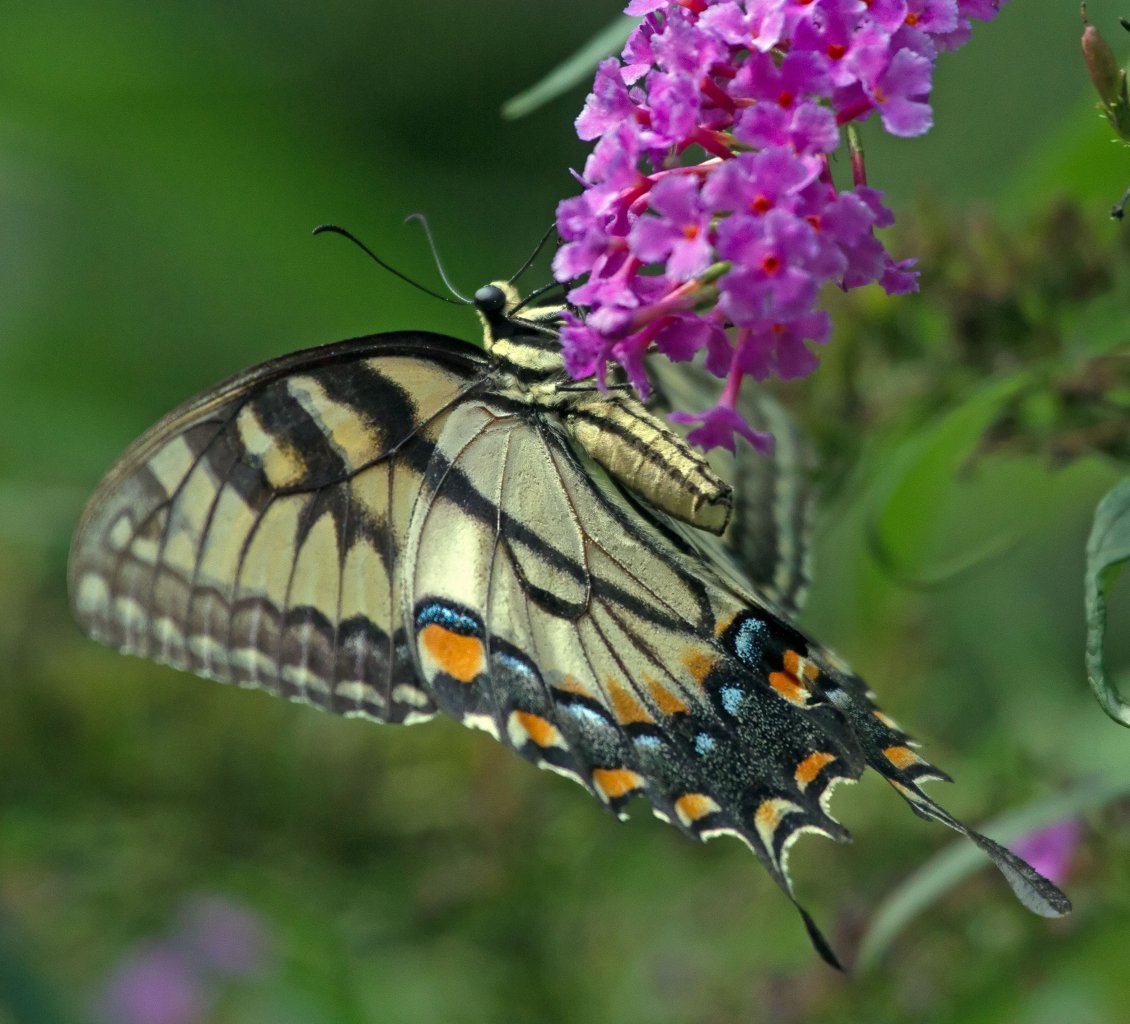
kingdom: Animalia
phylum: Arthropoda
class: Insecta
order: Lepidoptera
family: Papilionidae
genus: Pterourus
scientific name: Pterourus glaucus
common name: Eastern Tiger Swallowtail
